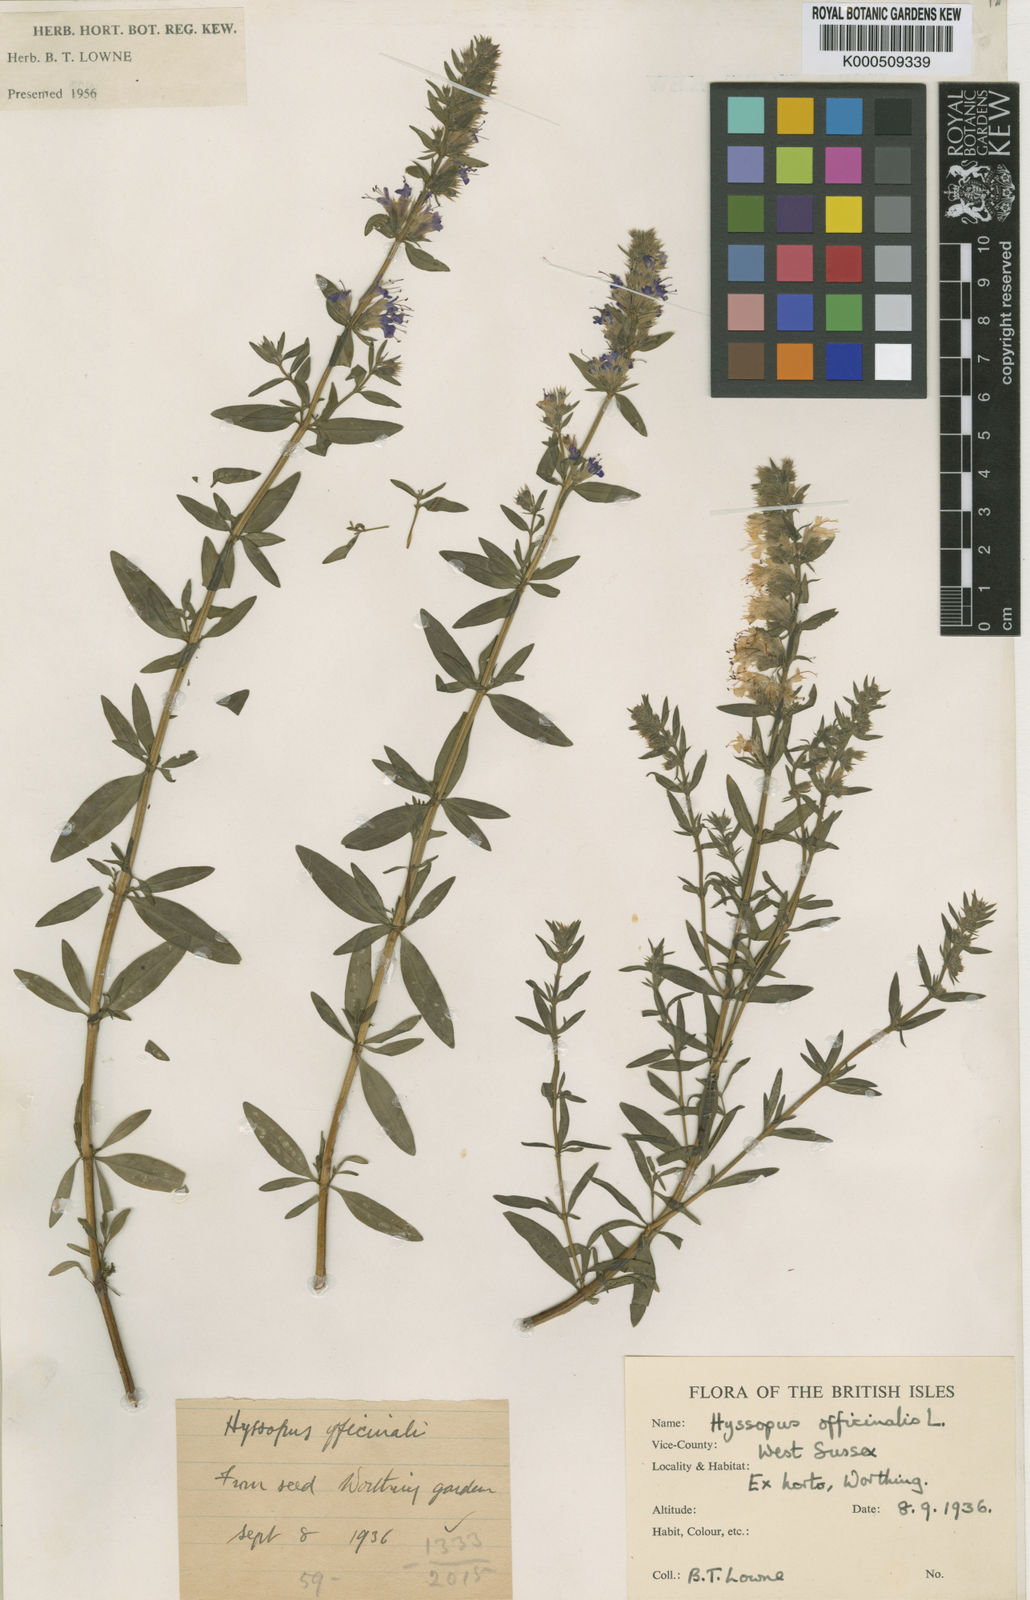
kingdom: Plantae
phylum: Tracheophyta
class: Magnoliopsida
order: Lamiales
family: Lamiaceae
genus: Hyssopus
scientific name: Hyssopus officinalis
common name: Hyssop
